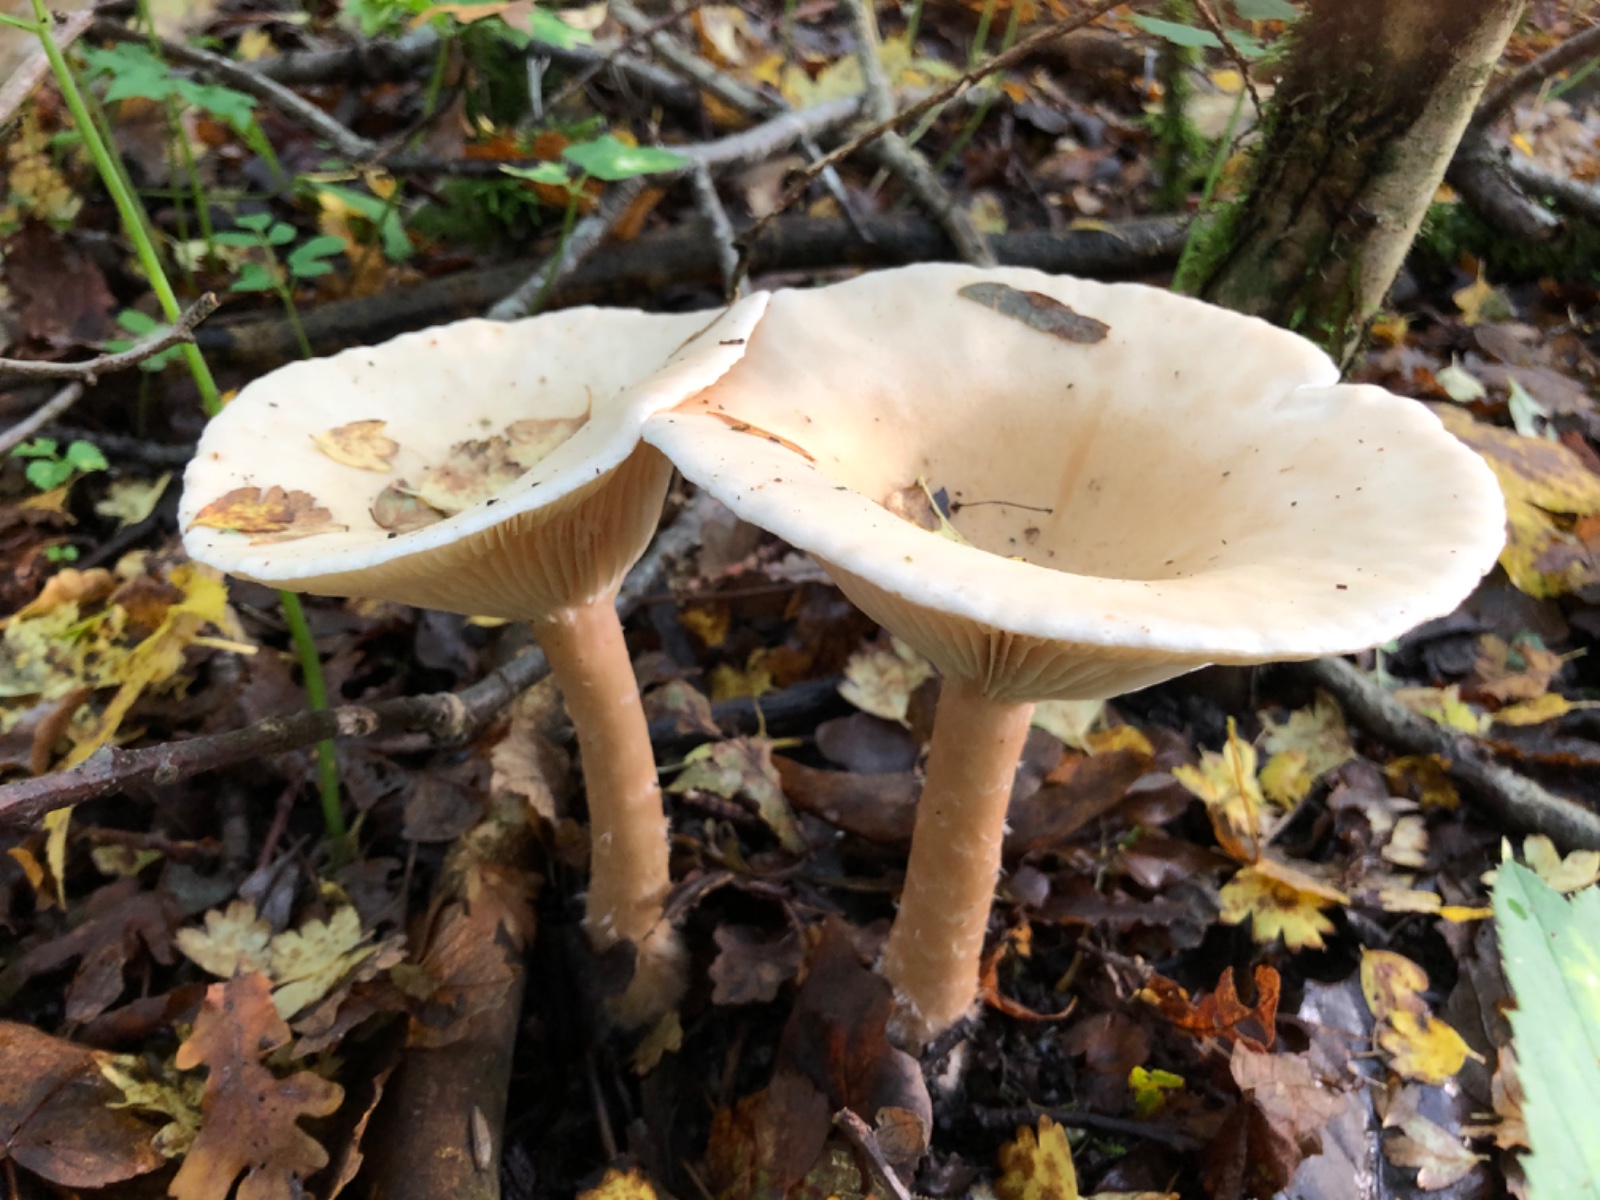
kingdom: Fungi
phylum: Basidiomycota
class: Agaricomycetes
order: Agaricales
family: Tricholomataceae
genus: Infundibulicybe
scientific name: Infundibulicybe geotropa
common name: stor tragthat
